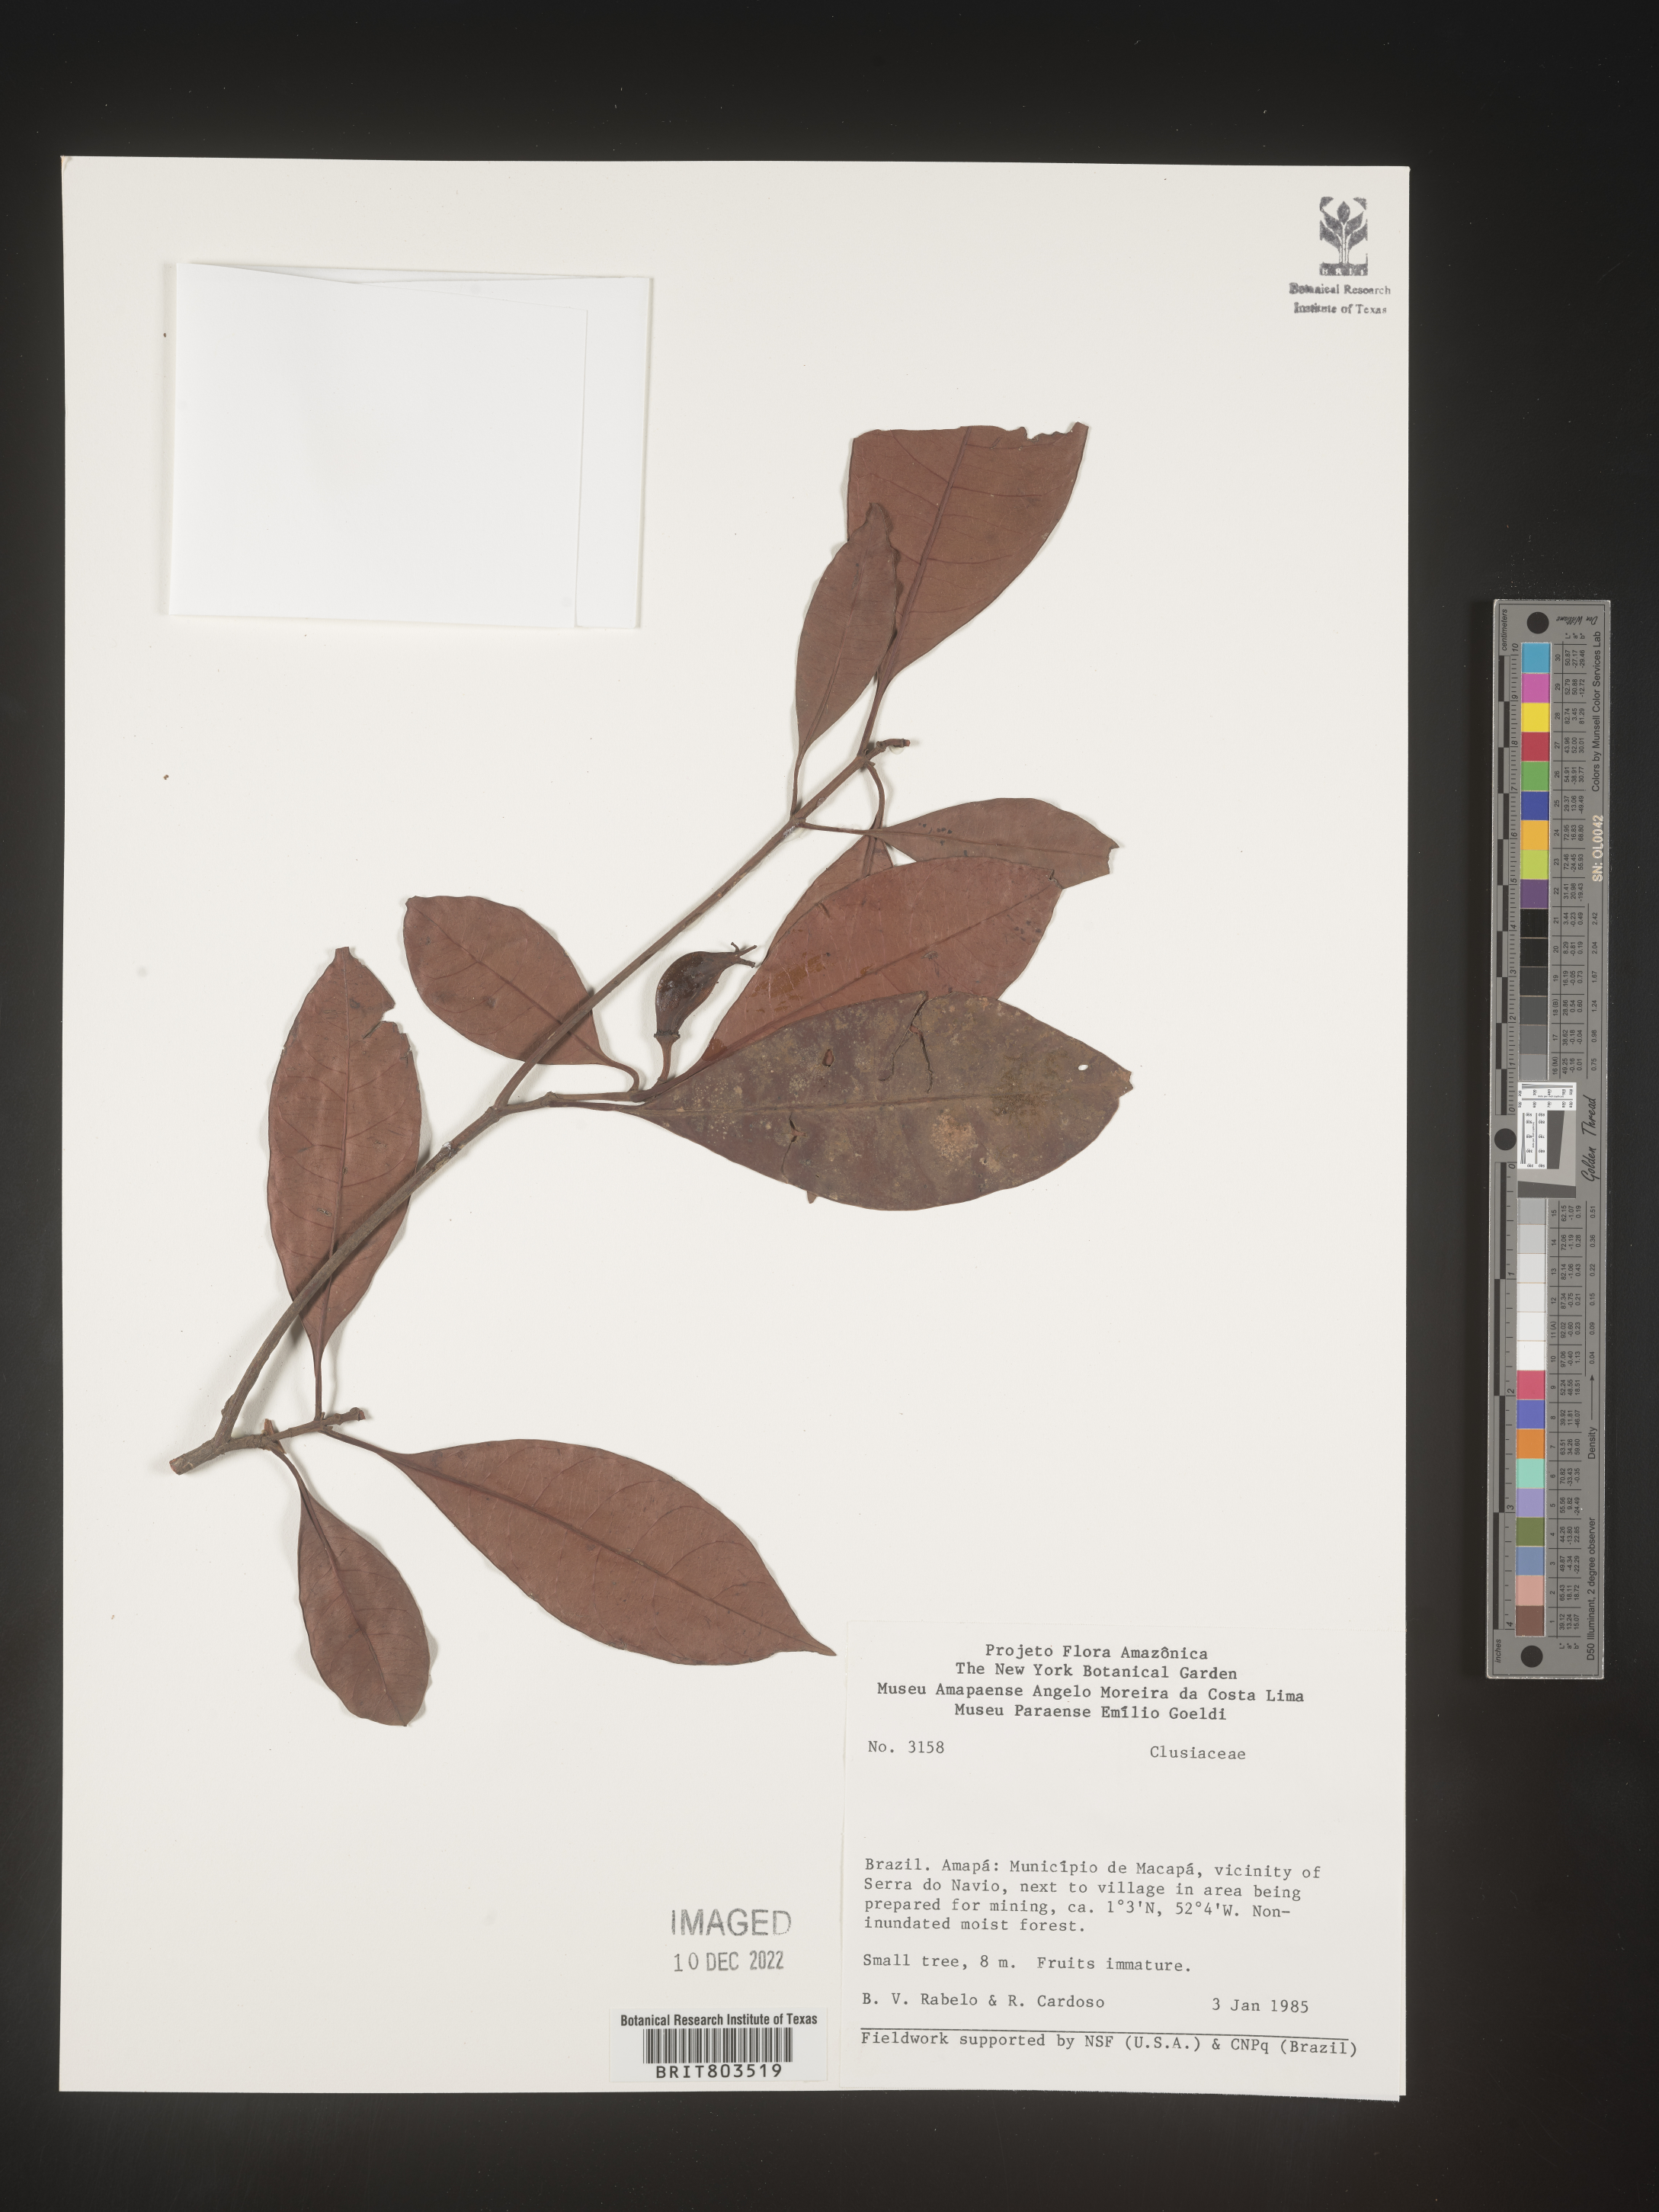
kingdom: Plantae
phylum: Tracheophyta
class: Magnoliopsida
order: Malpighiales
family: Clusiaceae
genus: Tovomita
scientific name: Tovomita
